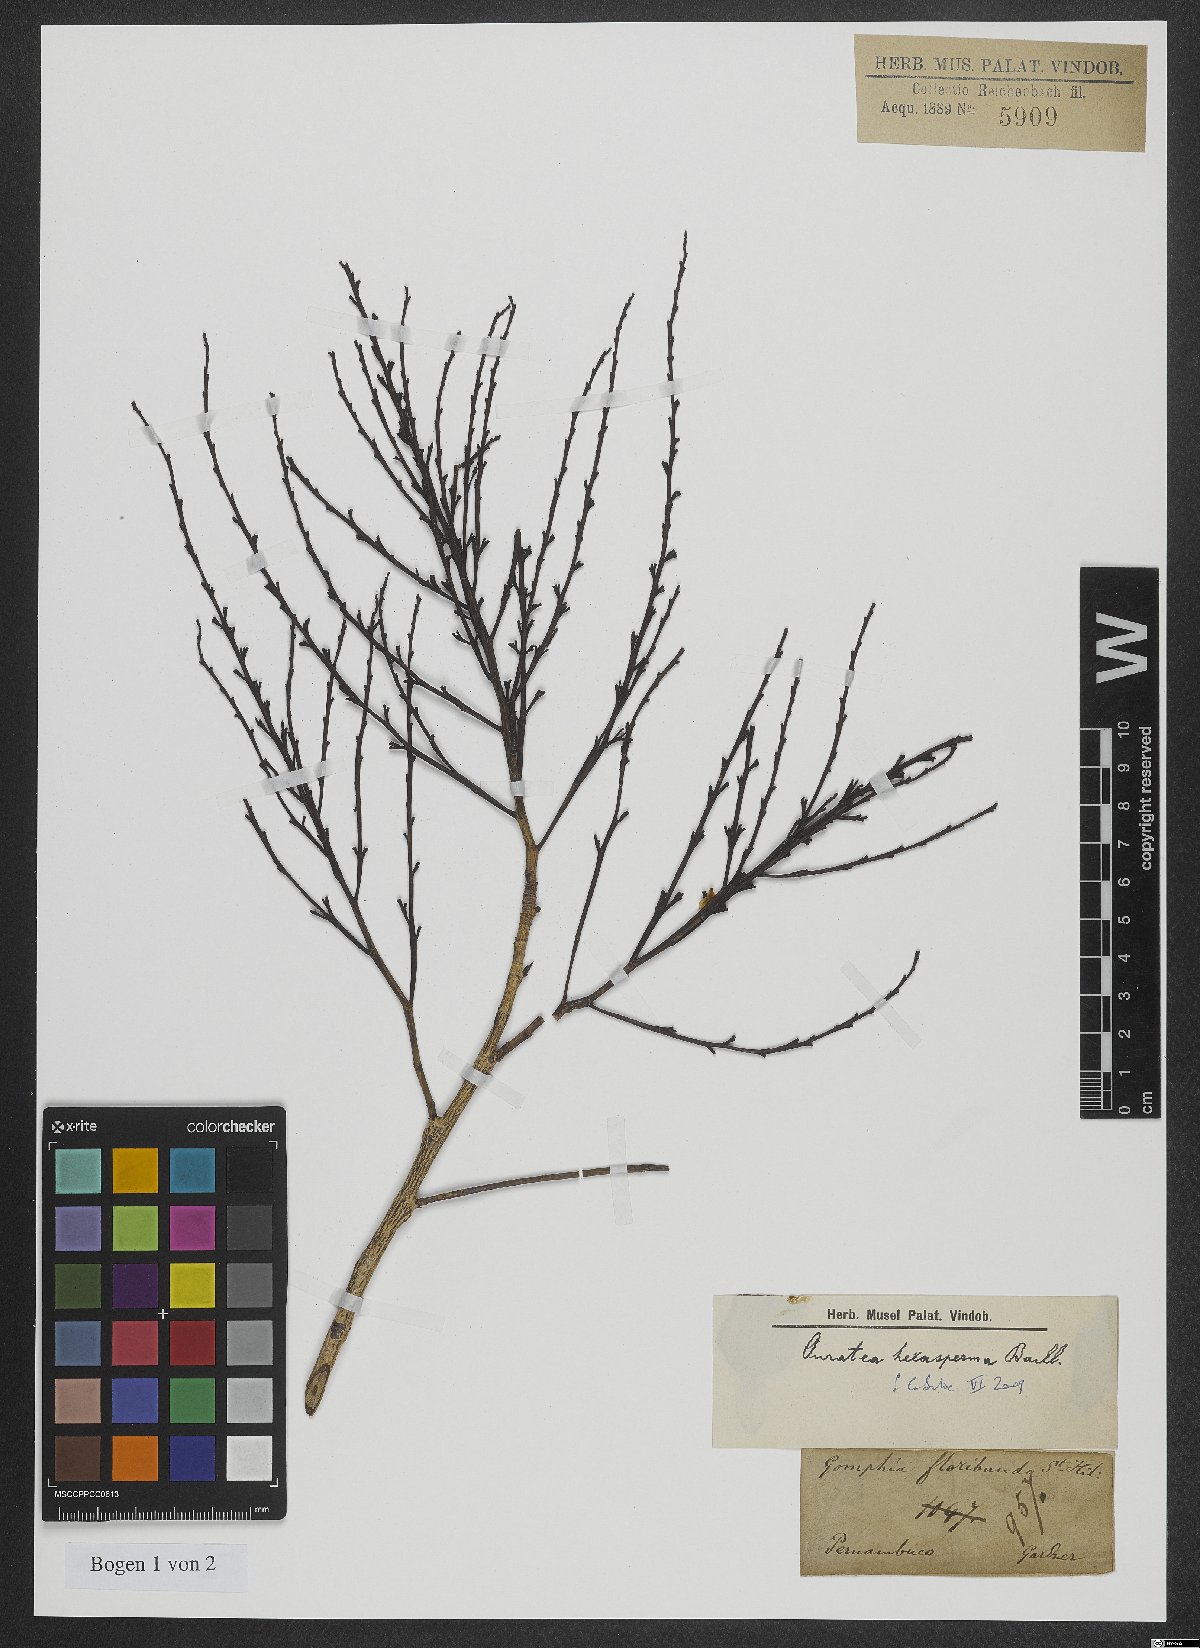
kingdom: Plantae
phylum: Tracheophyta
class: Magnoliopsida
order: Malpighiales
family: Ochnaceae
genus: Ouratea
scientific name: Ouratea hexasperma
